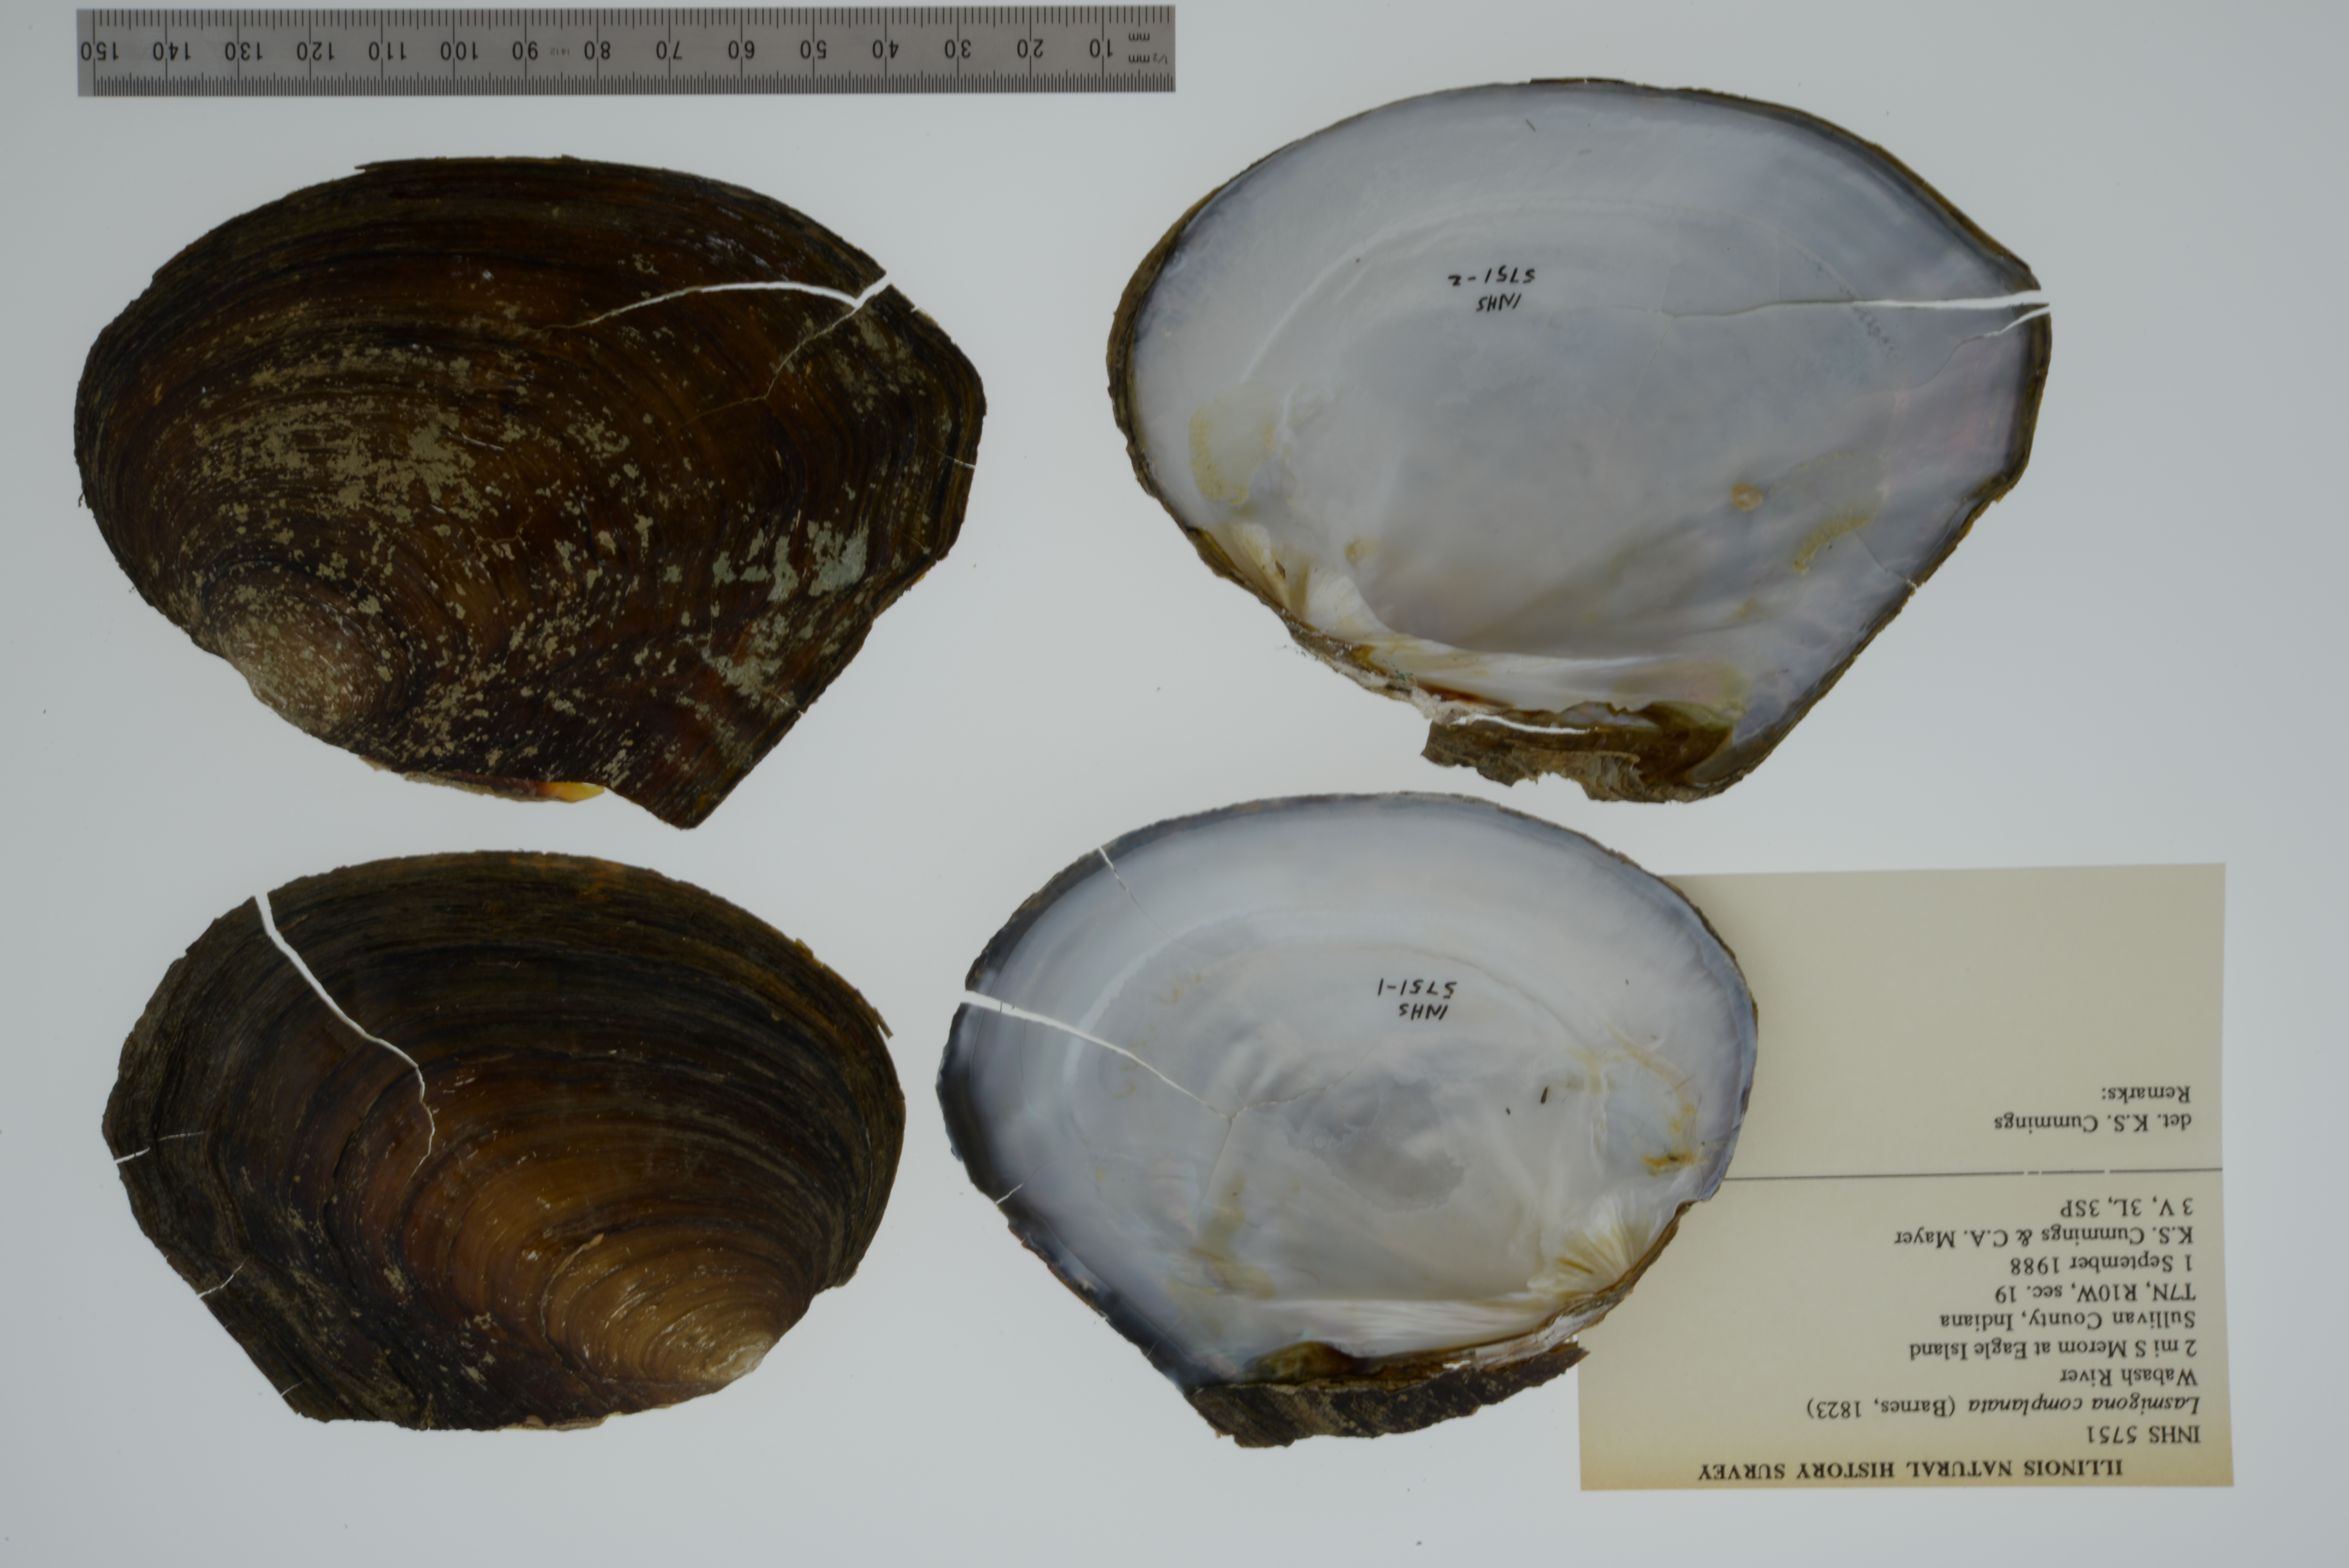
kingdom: Animalia
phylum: Mollusca
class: Bivalvia
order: Unionida
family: Unionidae
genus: Lasmigona
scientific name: Lasmigona complanata
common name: White heelsplitter
